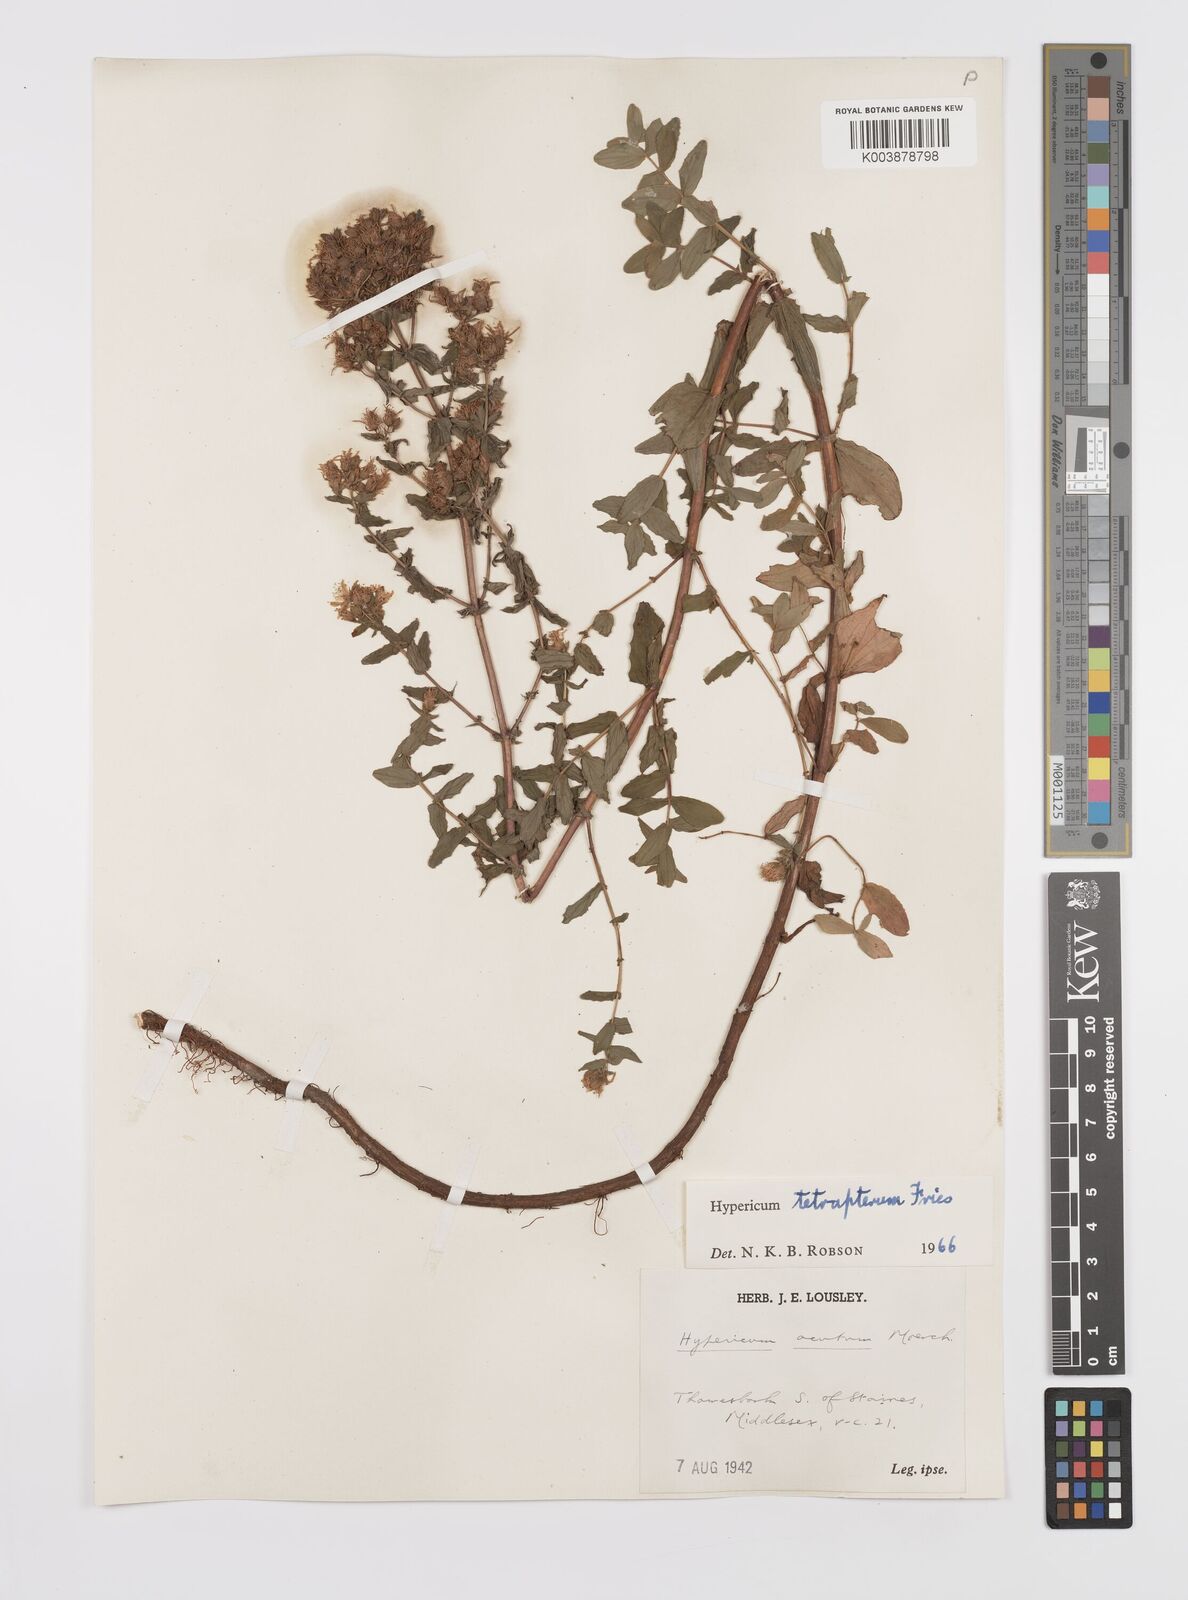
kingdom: Plantae
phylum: Tracheophyta
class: Magnoliopsida
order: Malpighiales
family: Hypericaceae
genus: Hypericum
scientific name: Hypericum tetrapterum
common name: Square-stalked st. john's-wort
